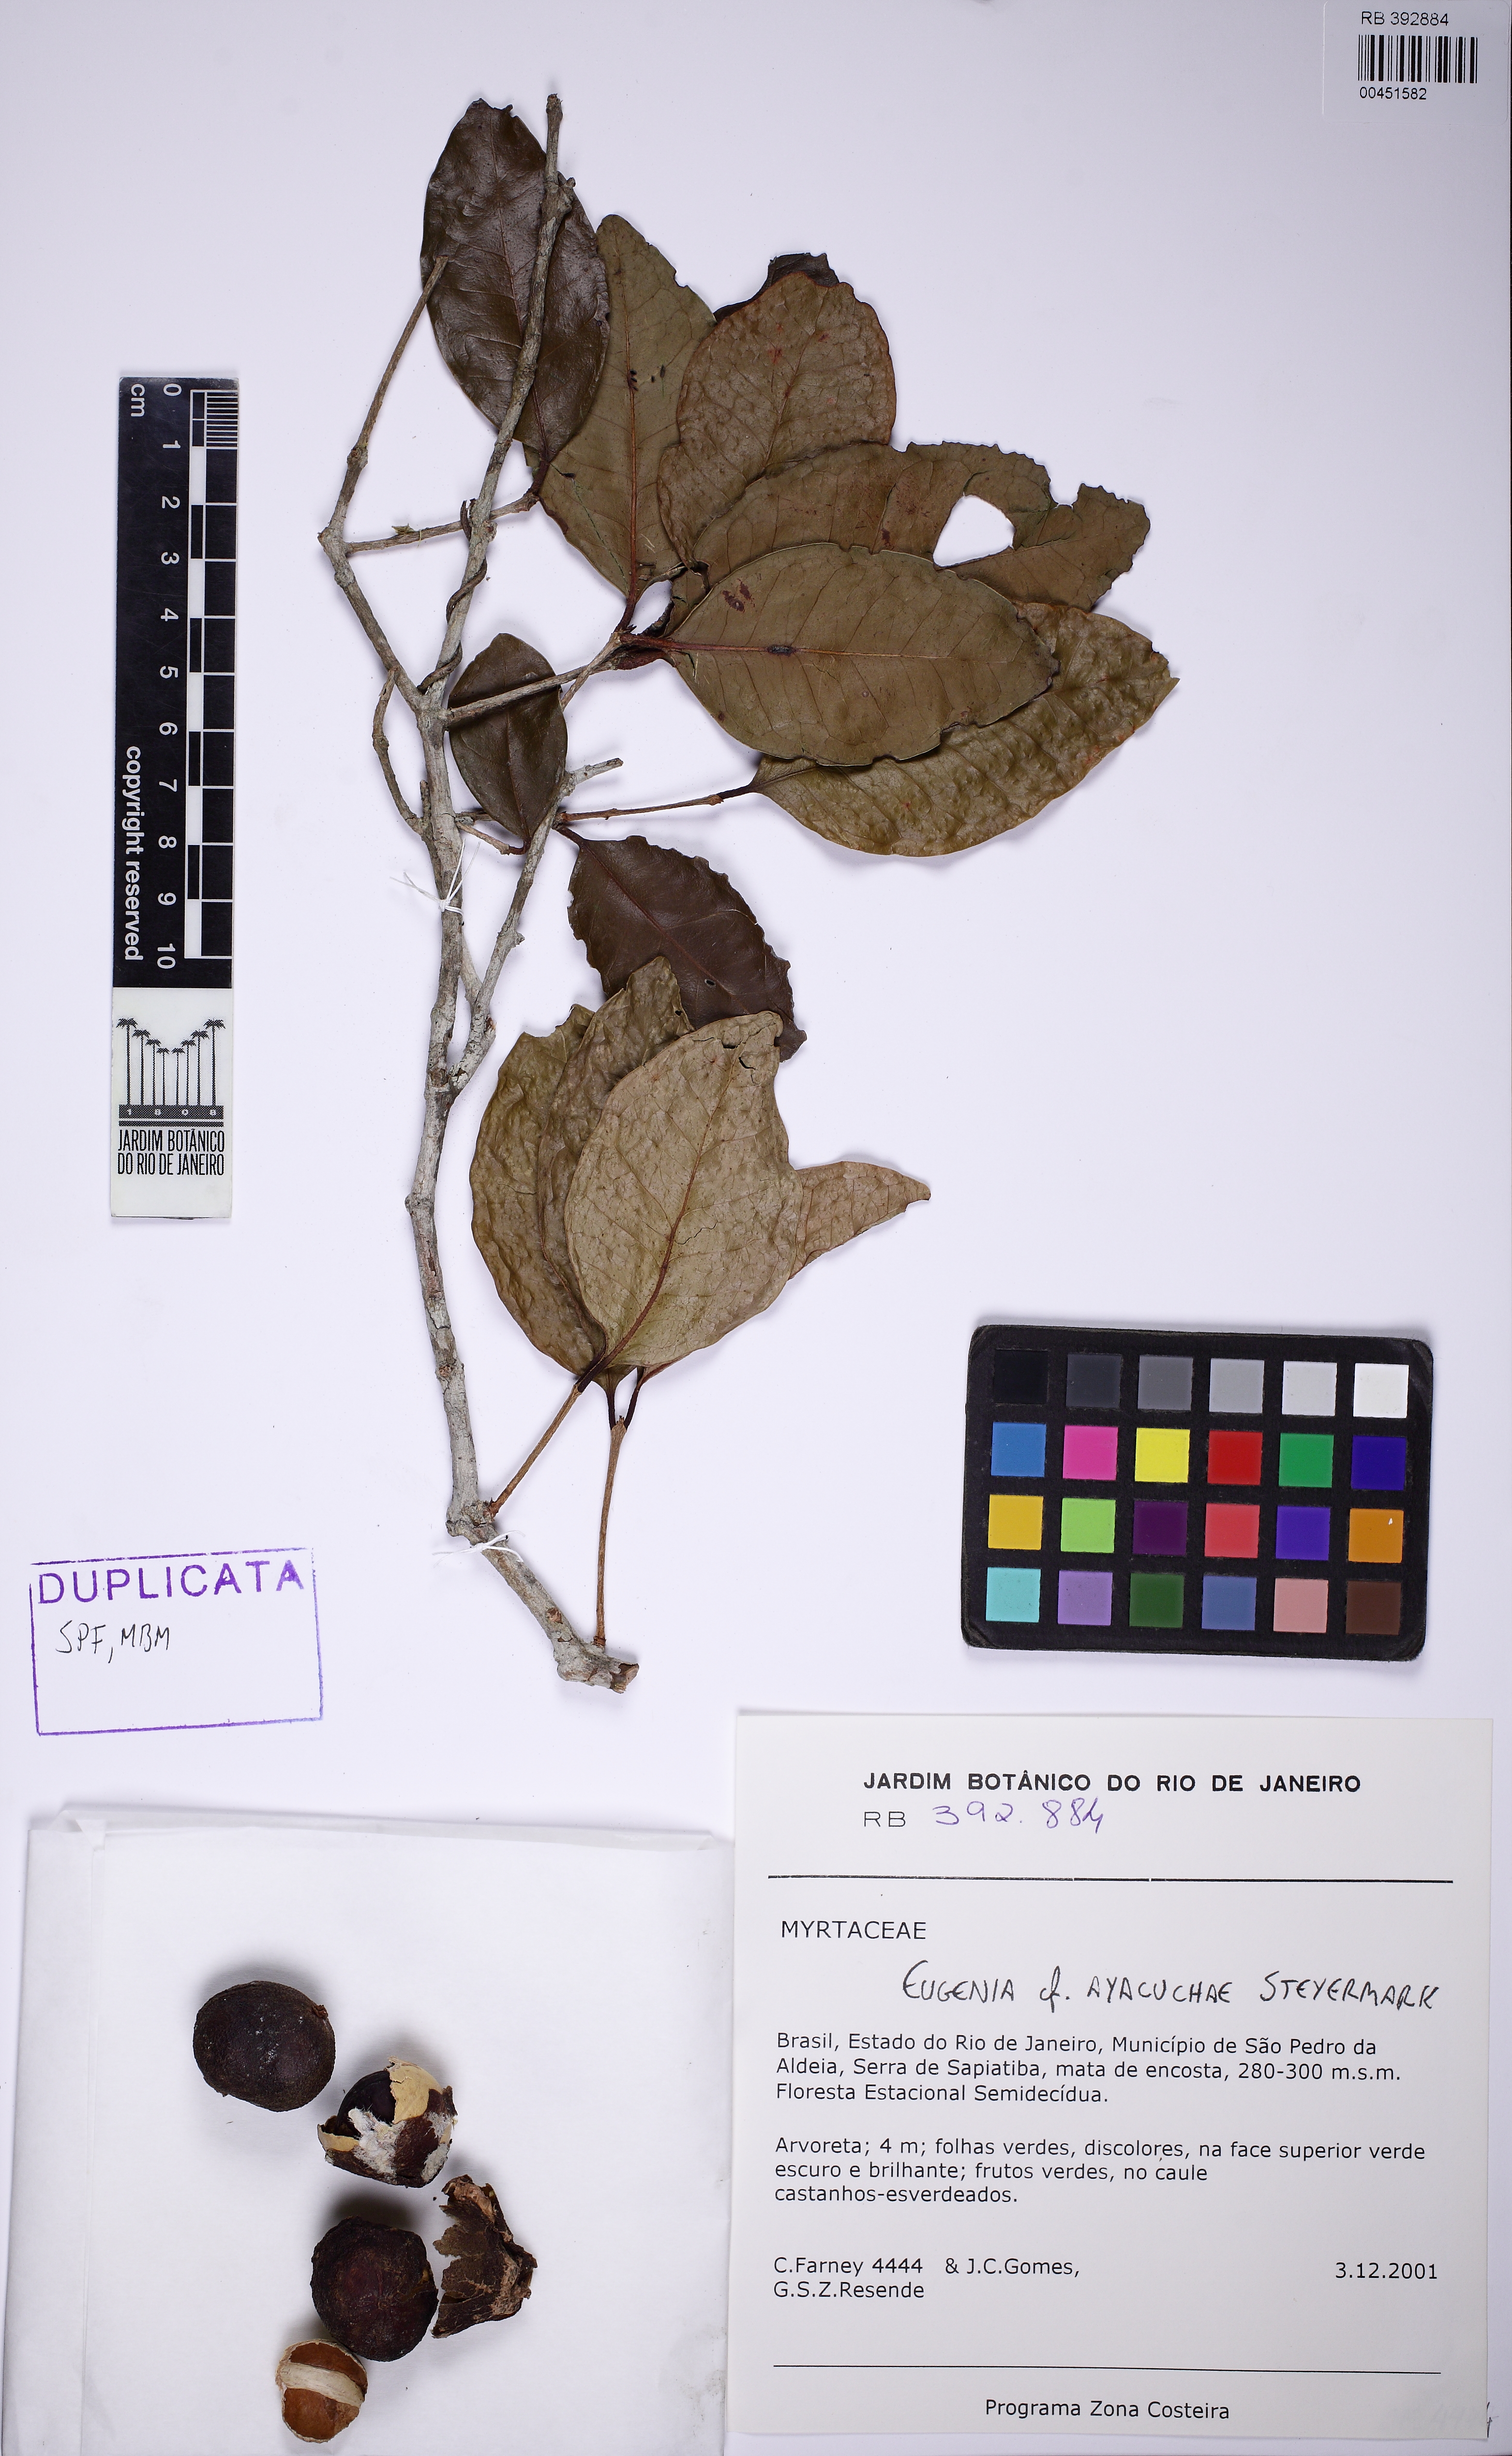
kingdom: Plantae
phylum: Tracheophyta
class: Magnoliopsida
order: Myrtales
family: Myrtaceae
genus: Eugenia
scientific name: Eugenia ayacuchae
